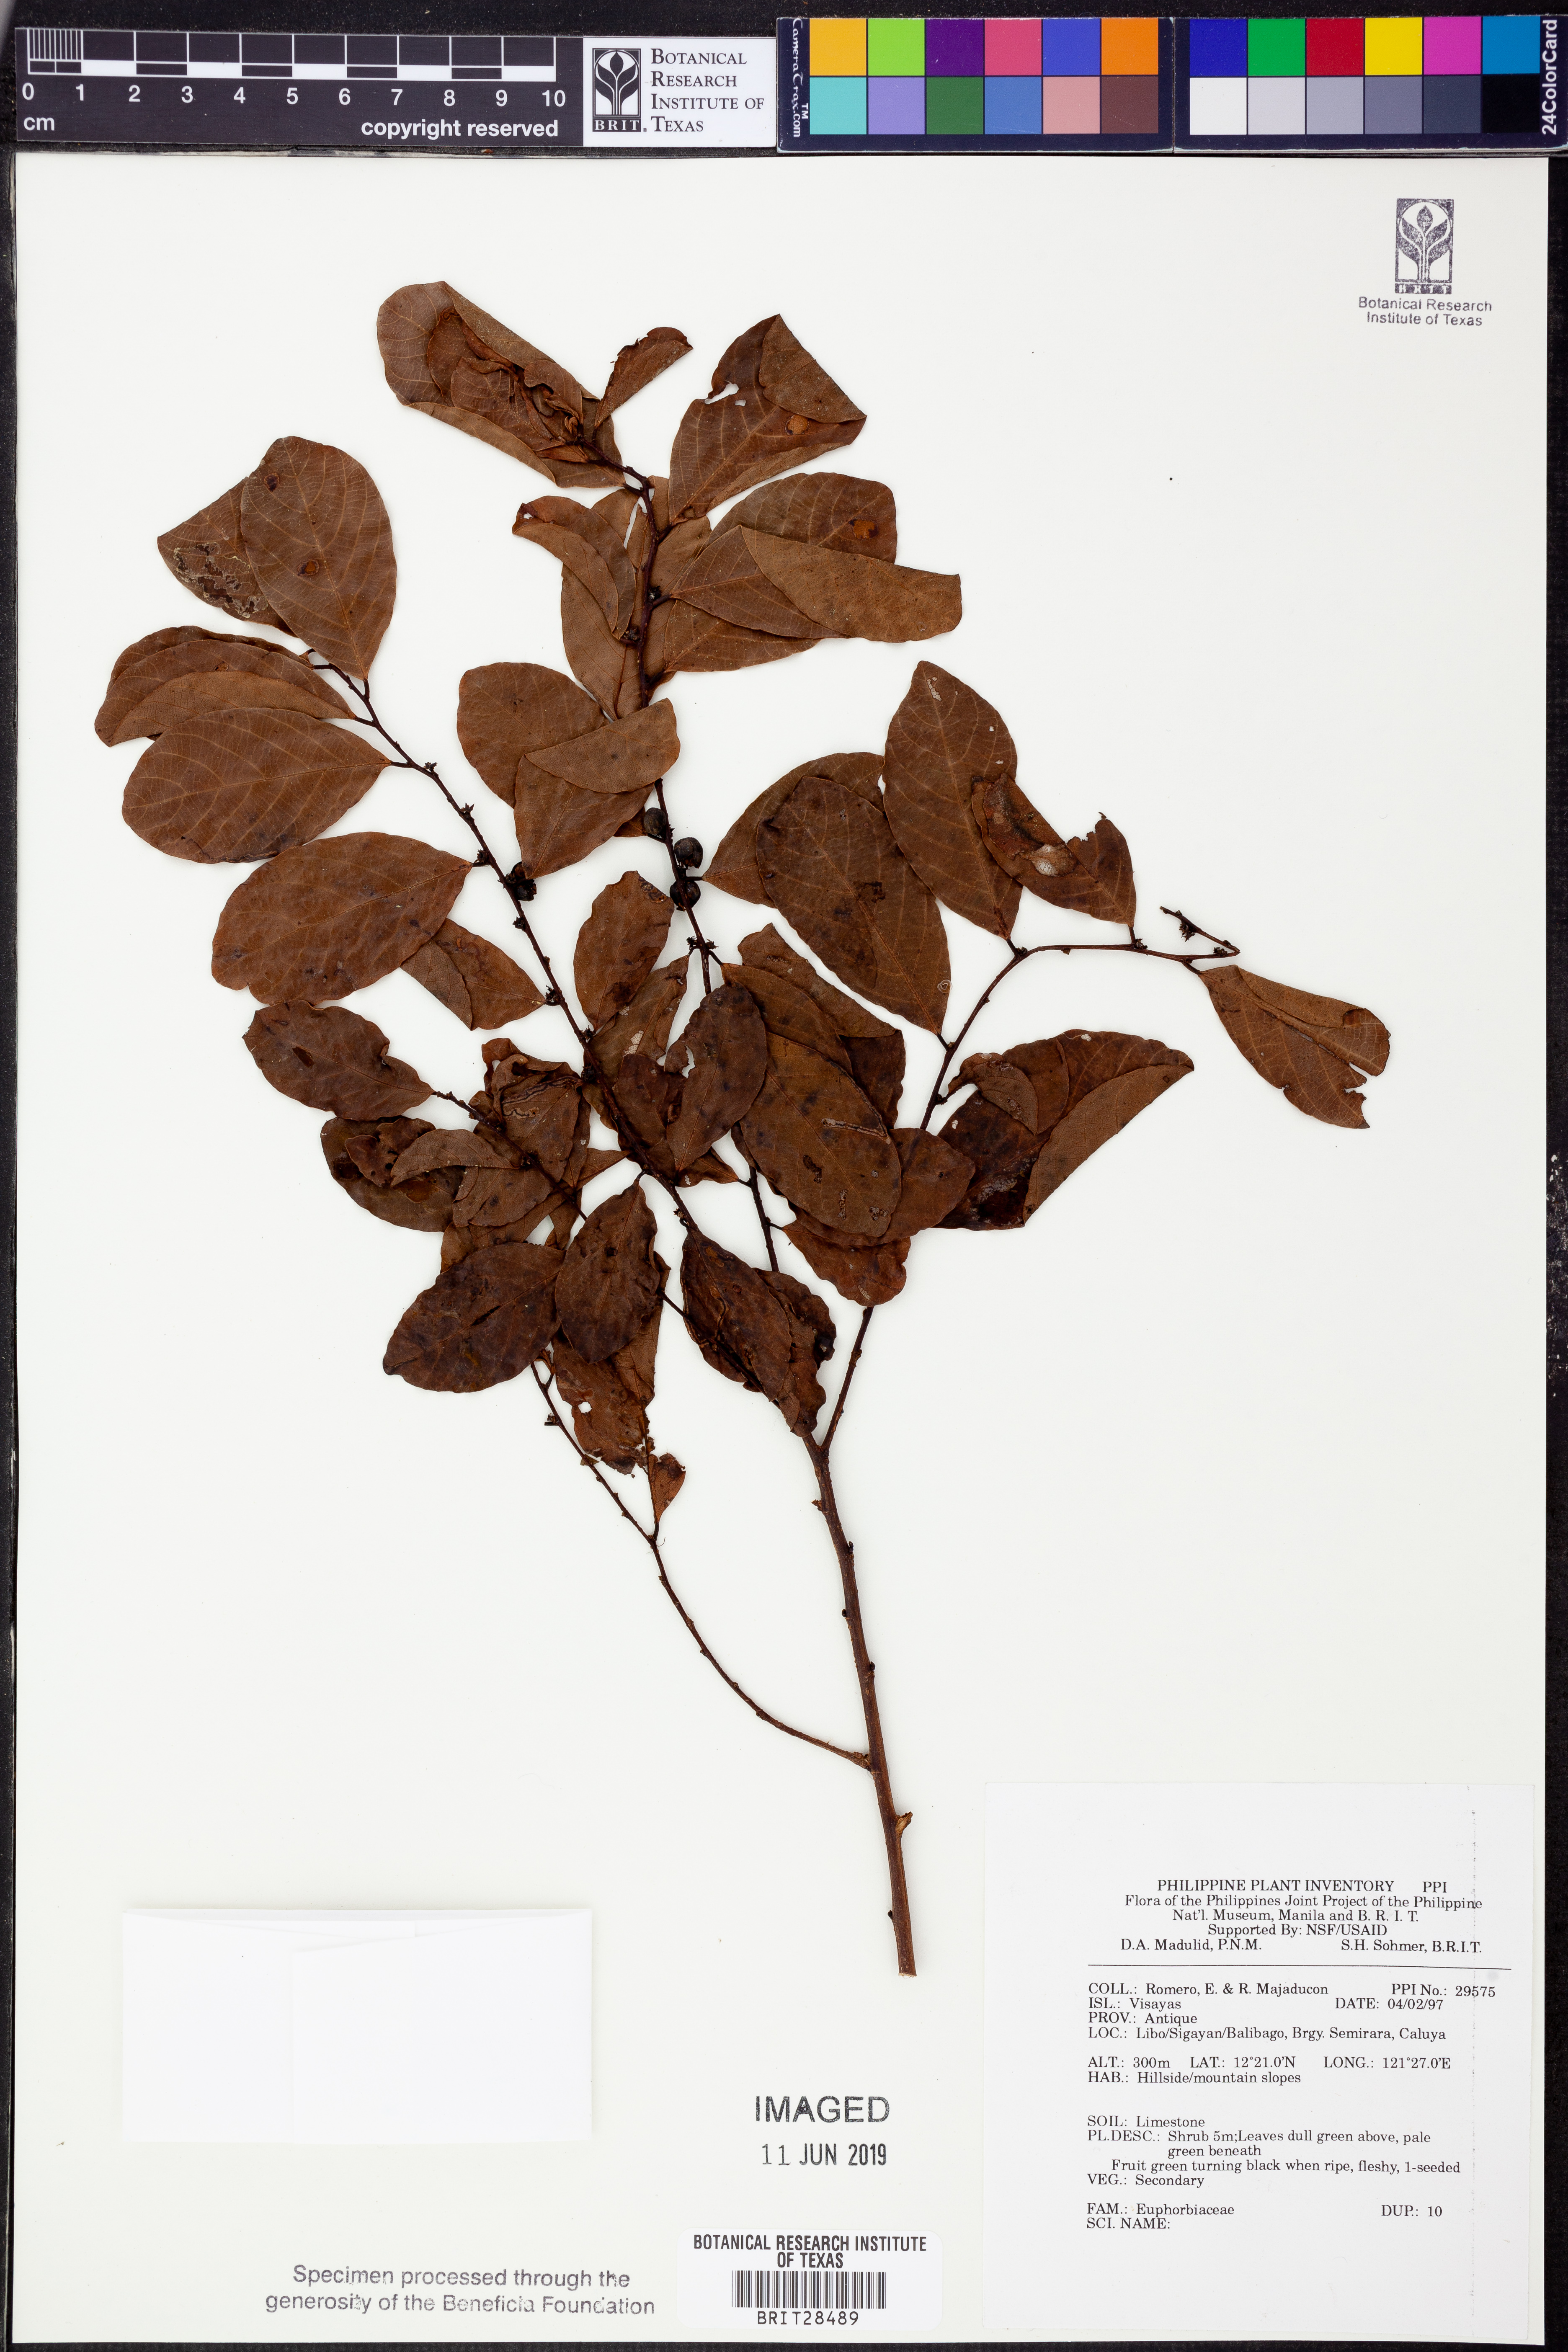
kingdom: Plantae
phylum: Tracheophyta
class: Magnoliopsida
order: Malpighiales
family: Euphorbiaceae
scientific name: Euphorbiaceae
